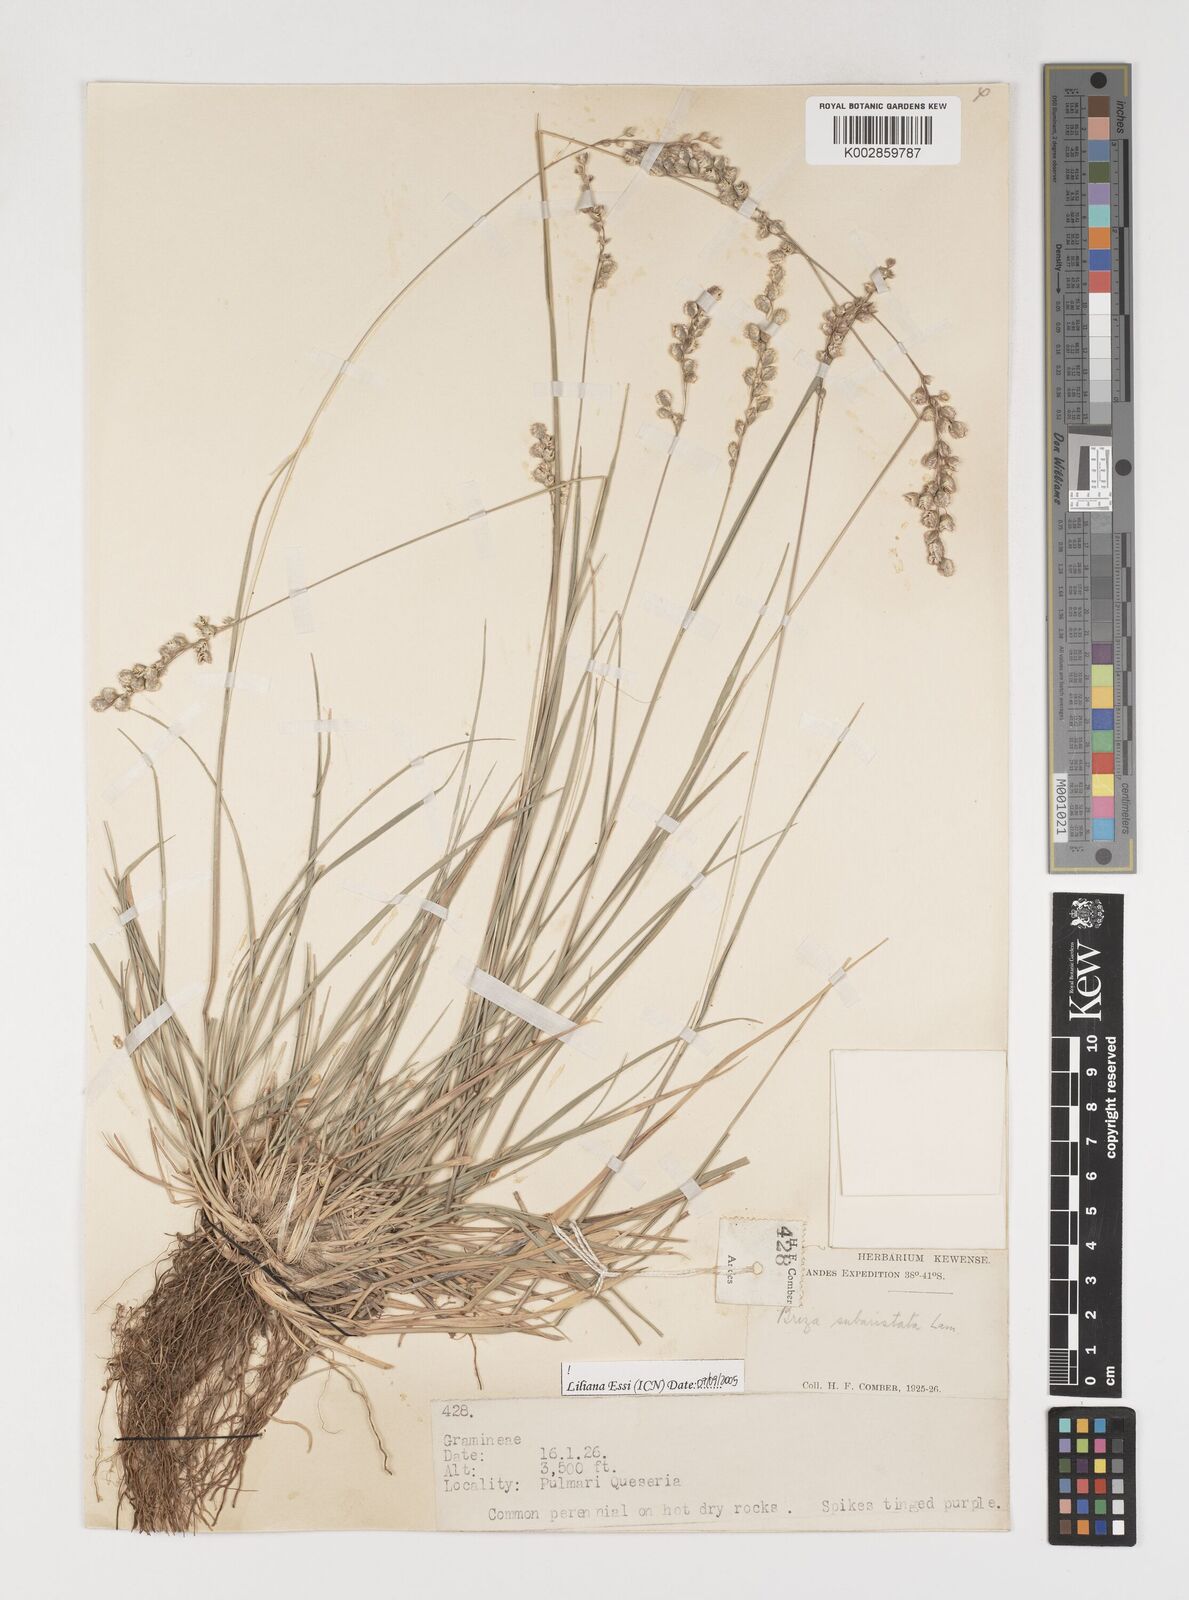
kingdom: Plantae
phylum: Tracheophyta
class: Liliopsida
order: Poales
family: Poaceae
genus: Chascolytrum
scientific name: Chascolytrum subaristatum
